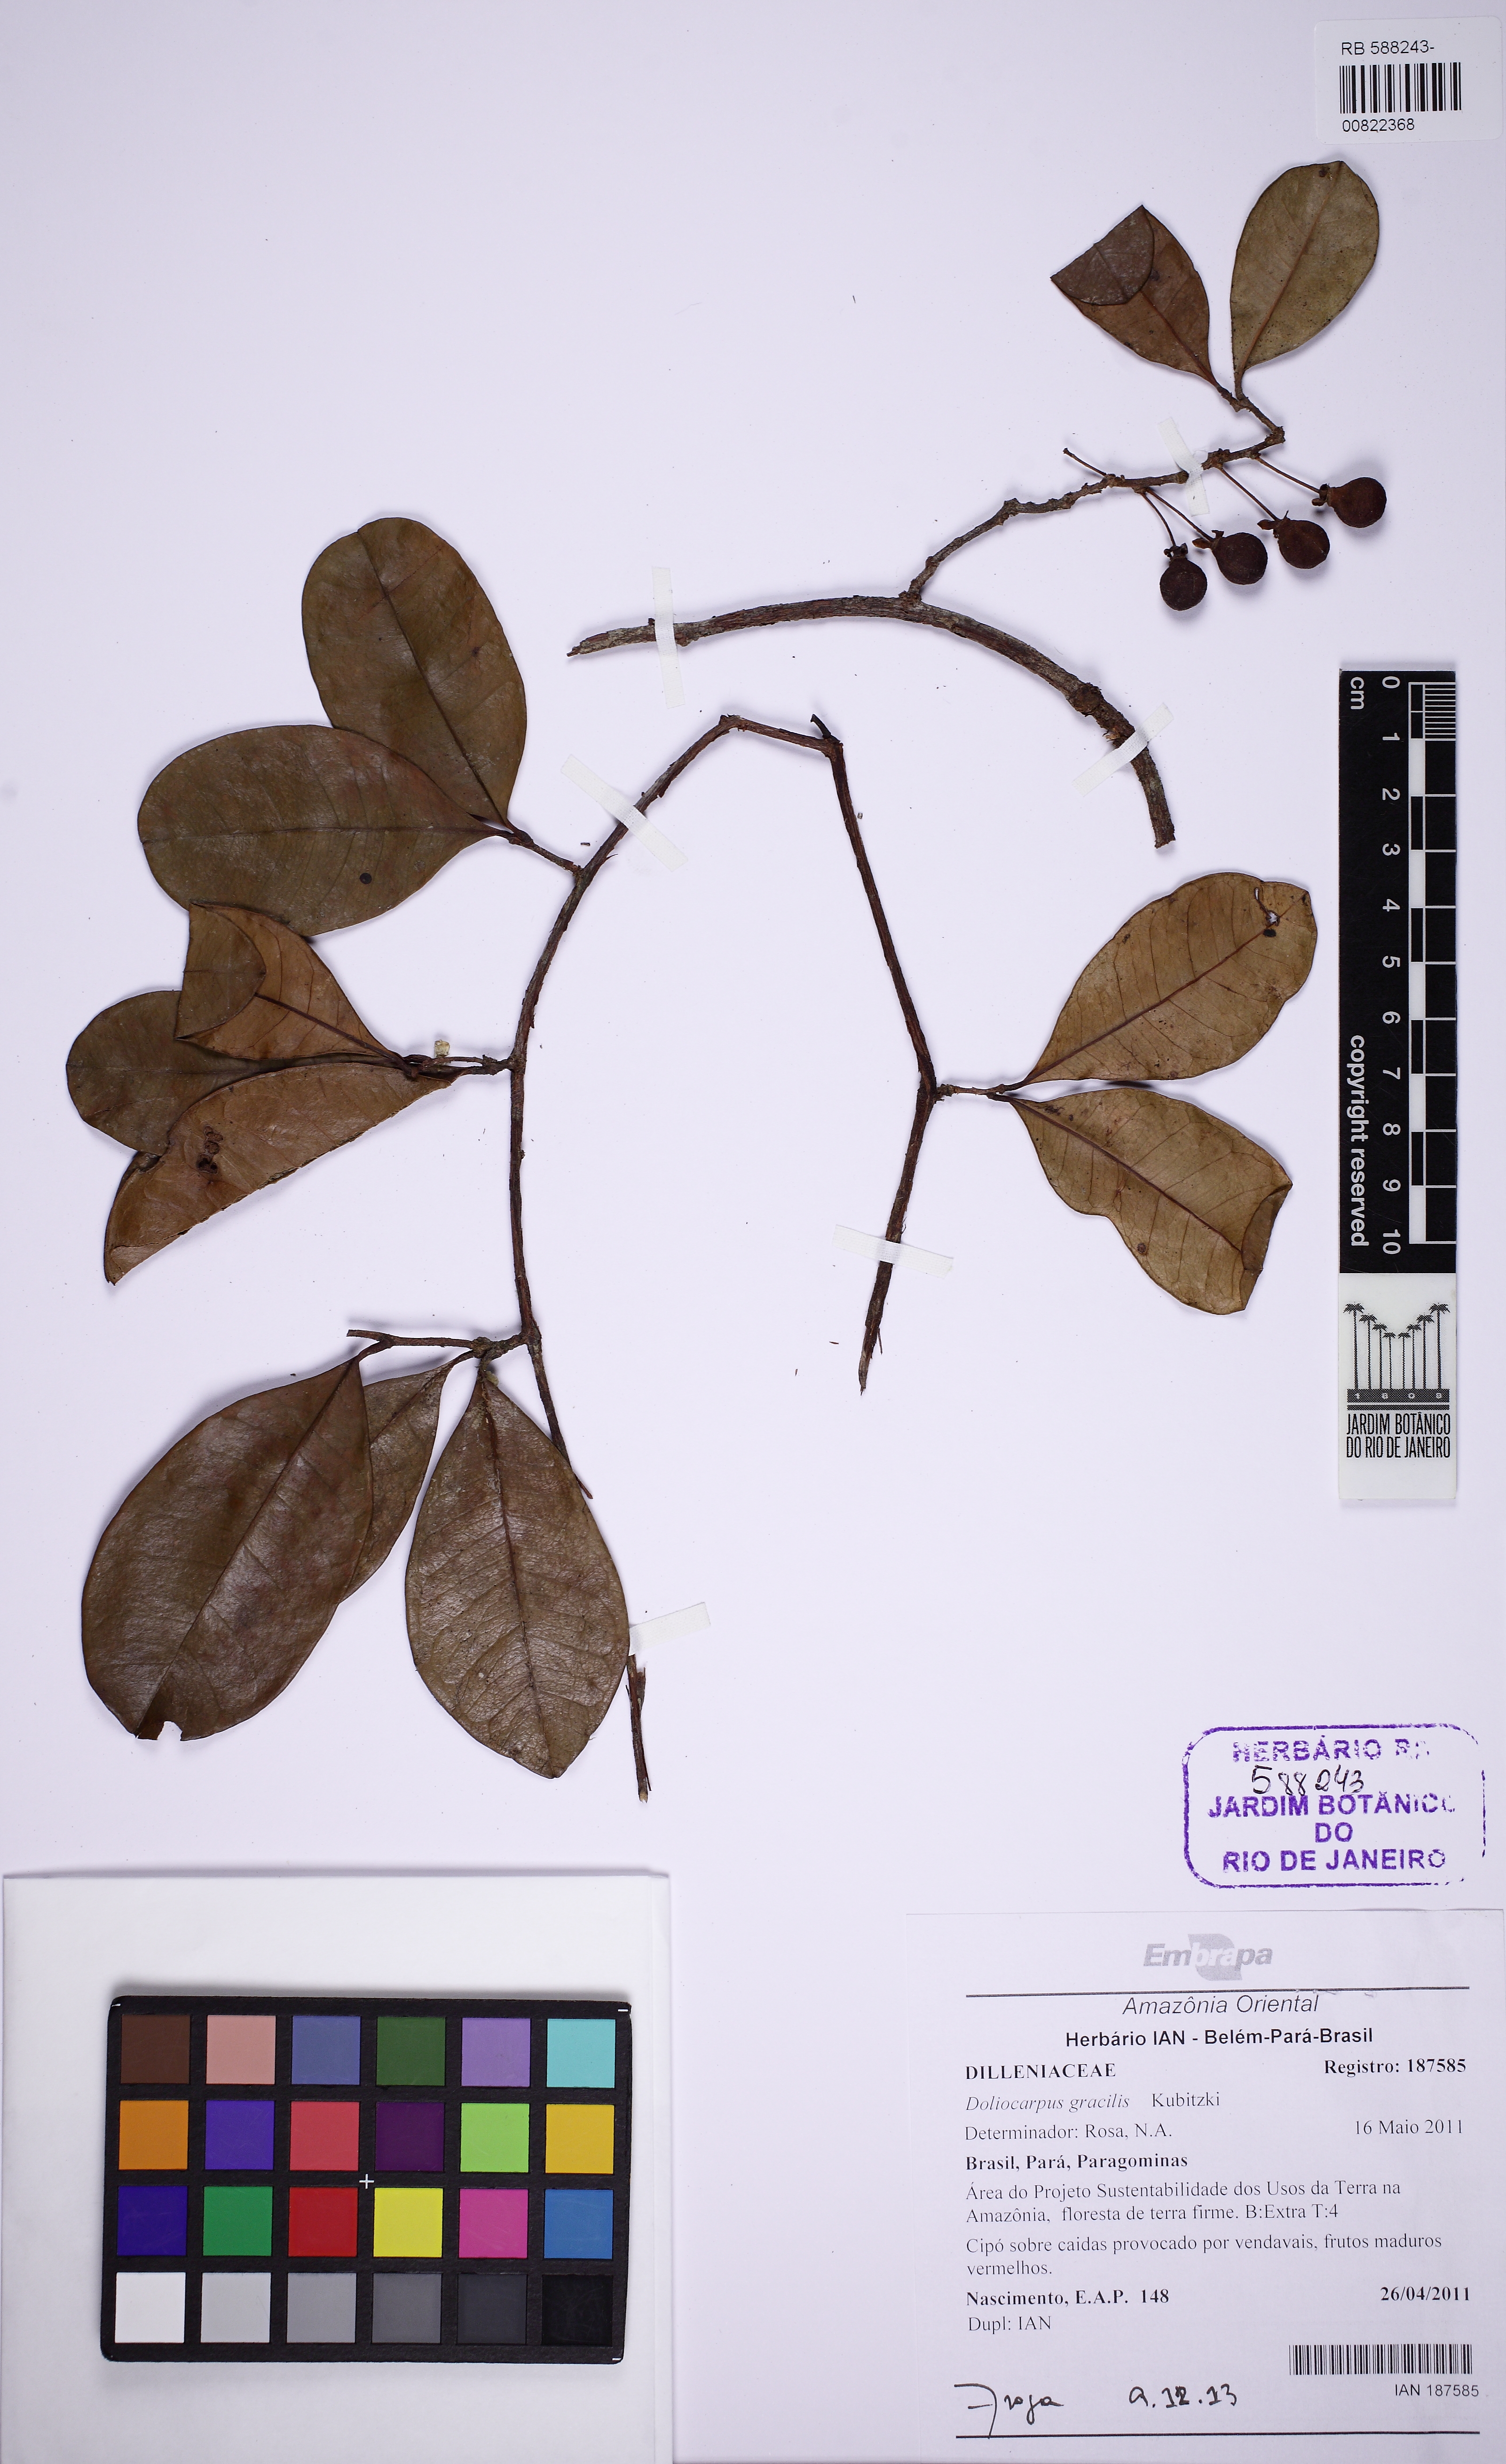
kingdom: Plantae
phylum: Tracheophyta
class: Magnoliopsida
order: Dilleniales
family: Dilleniaceae
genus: Doliocarpus
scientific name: Doliocarpus gracilis
